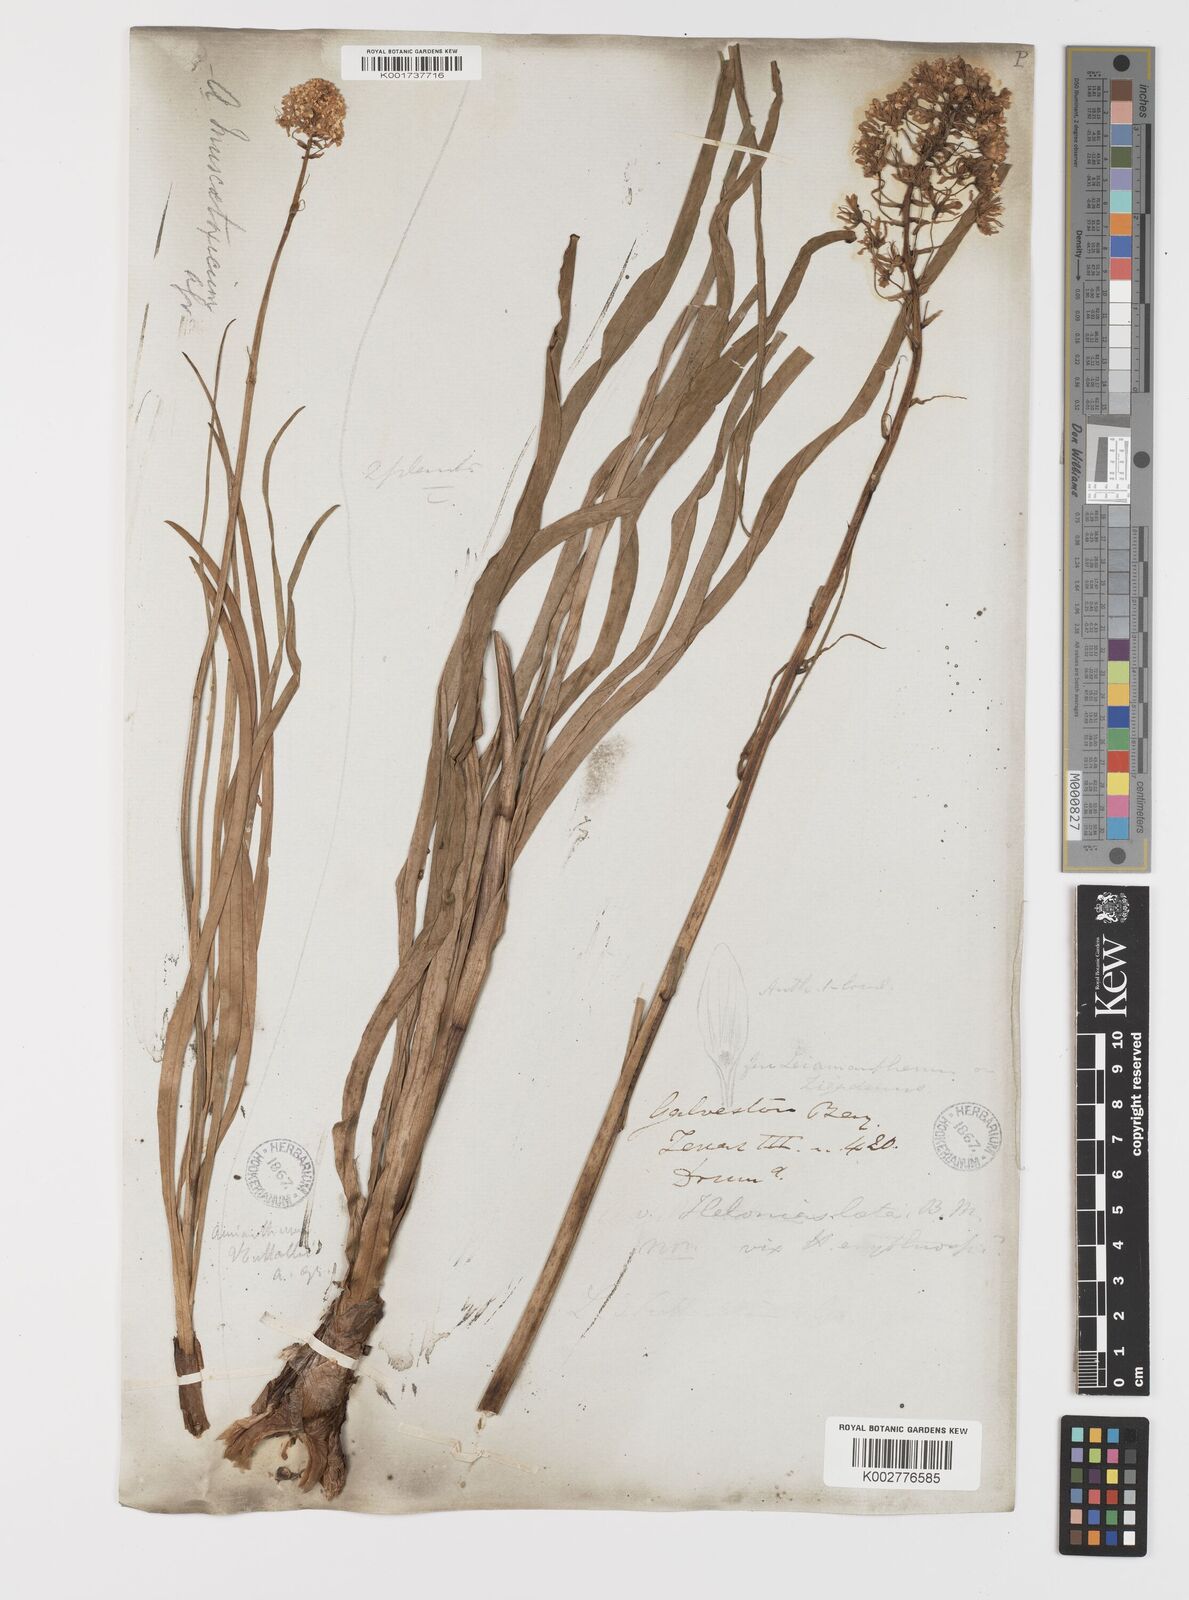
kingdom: Plantae
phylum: Tracheophyta
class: Liliopsida
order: Liliales
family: Melanthiaceae
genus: Toxicoscordion
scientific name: Toxicoscordion nuttallii
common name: Poison sego
